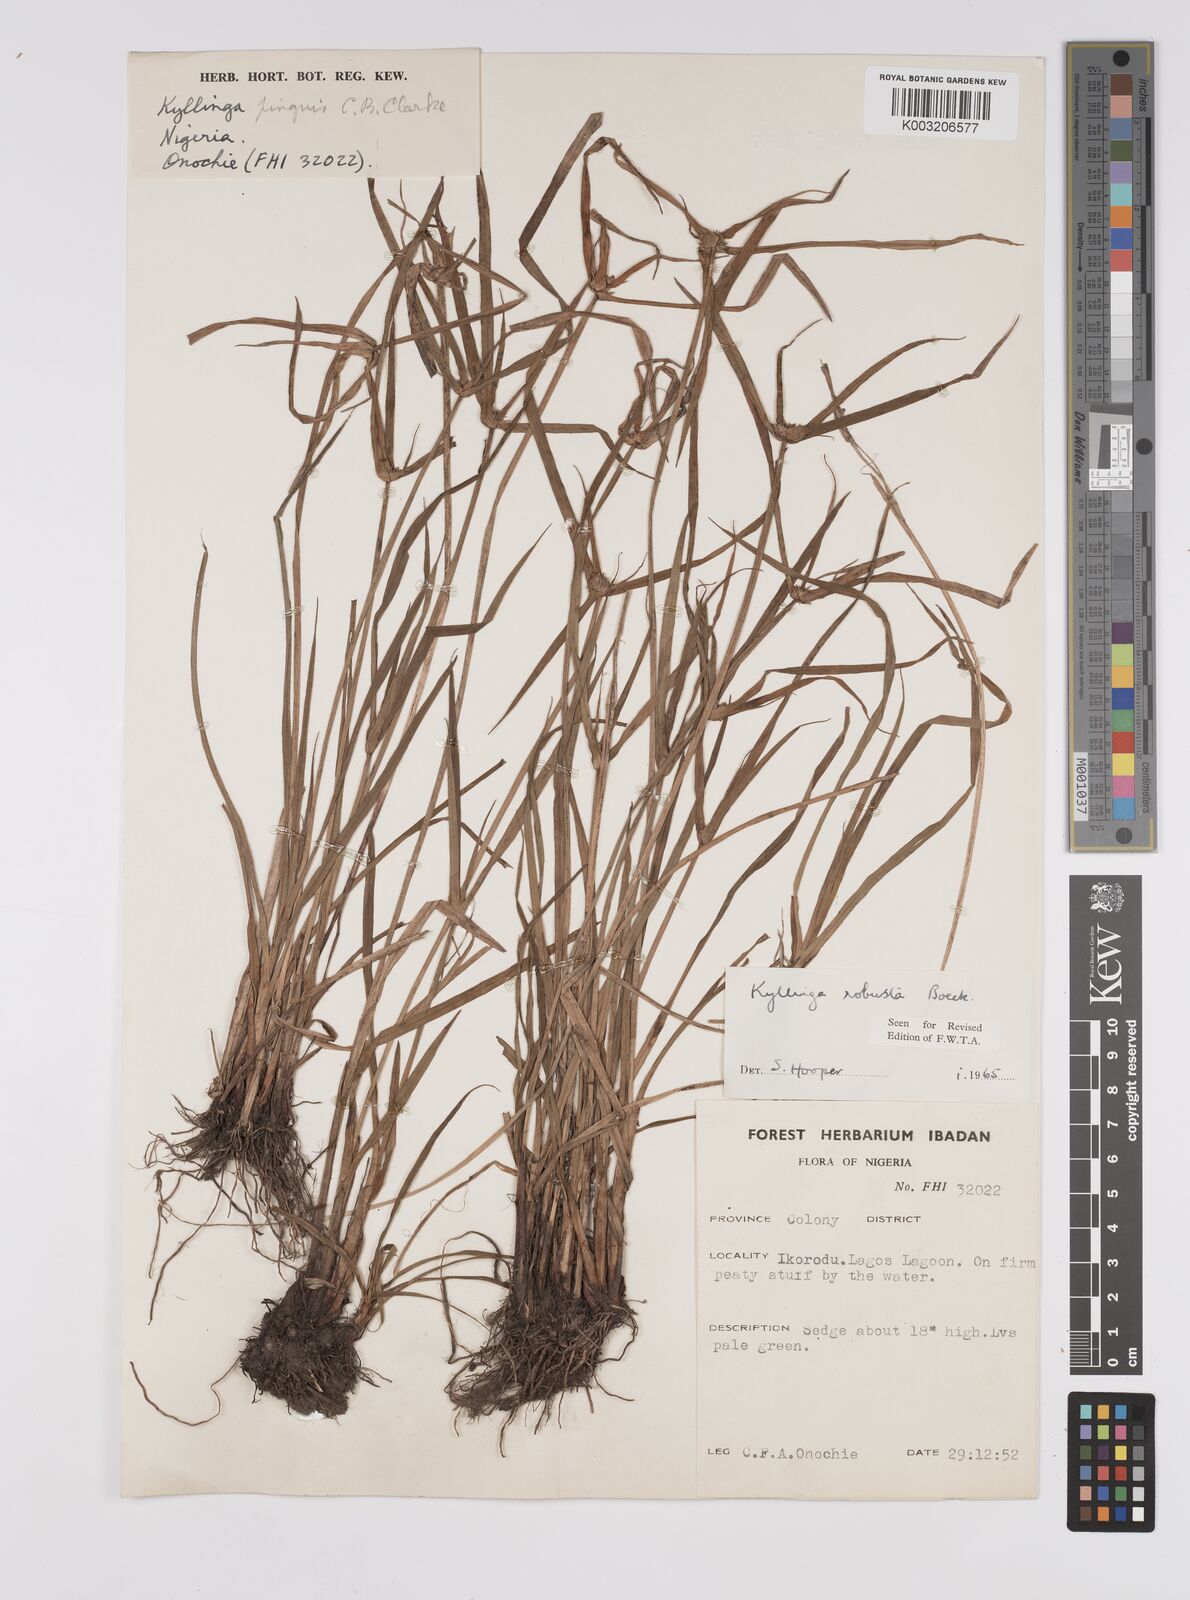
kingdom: Plantae
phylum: Tracheophyta
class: Liliopsida
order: Poales
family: Cyperaceae
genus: Cyperus
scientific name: Cyperus
